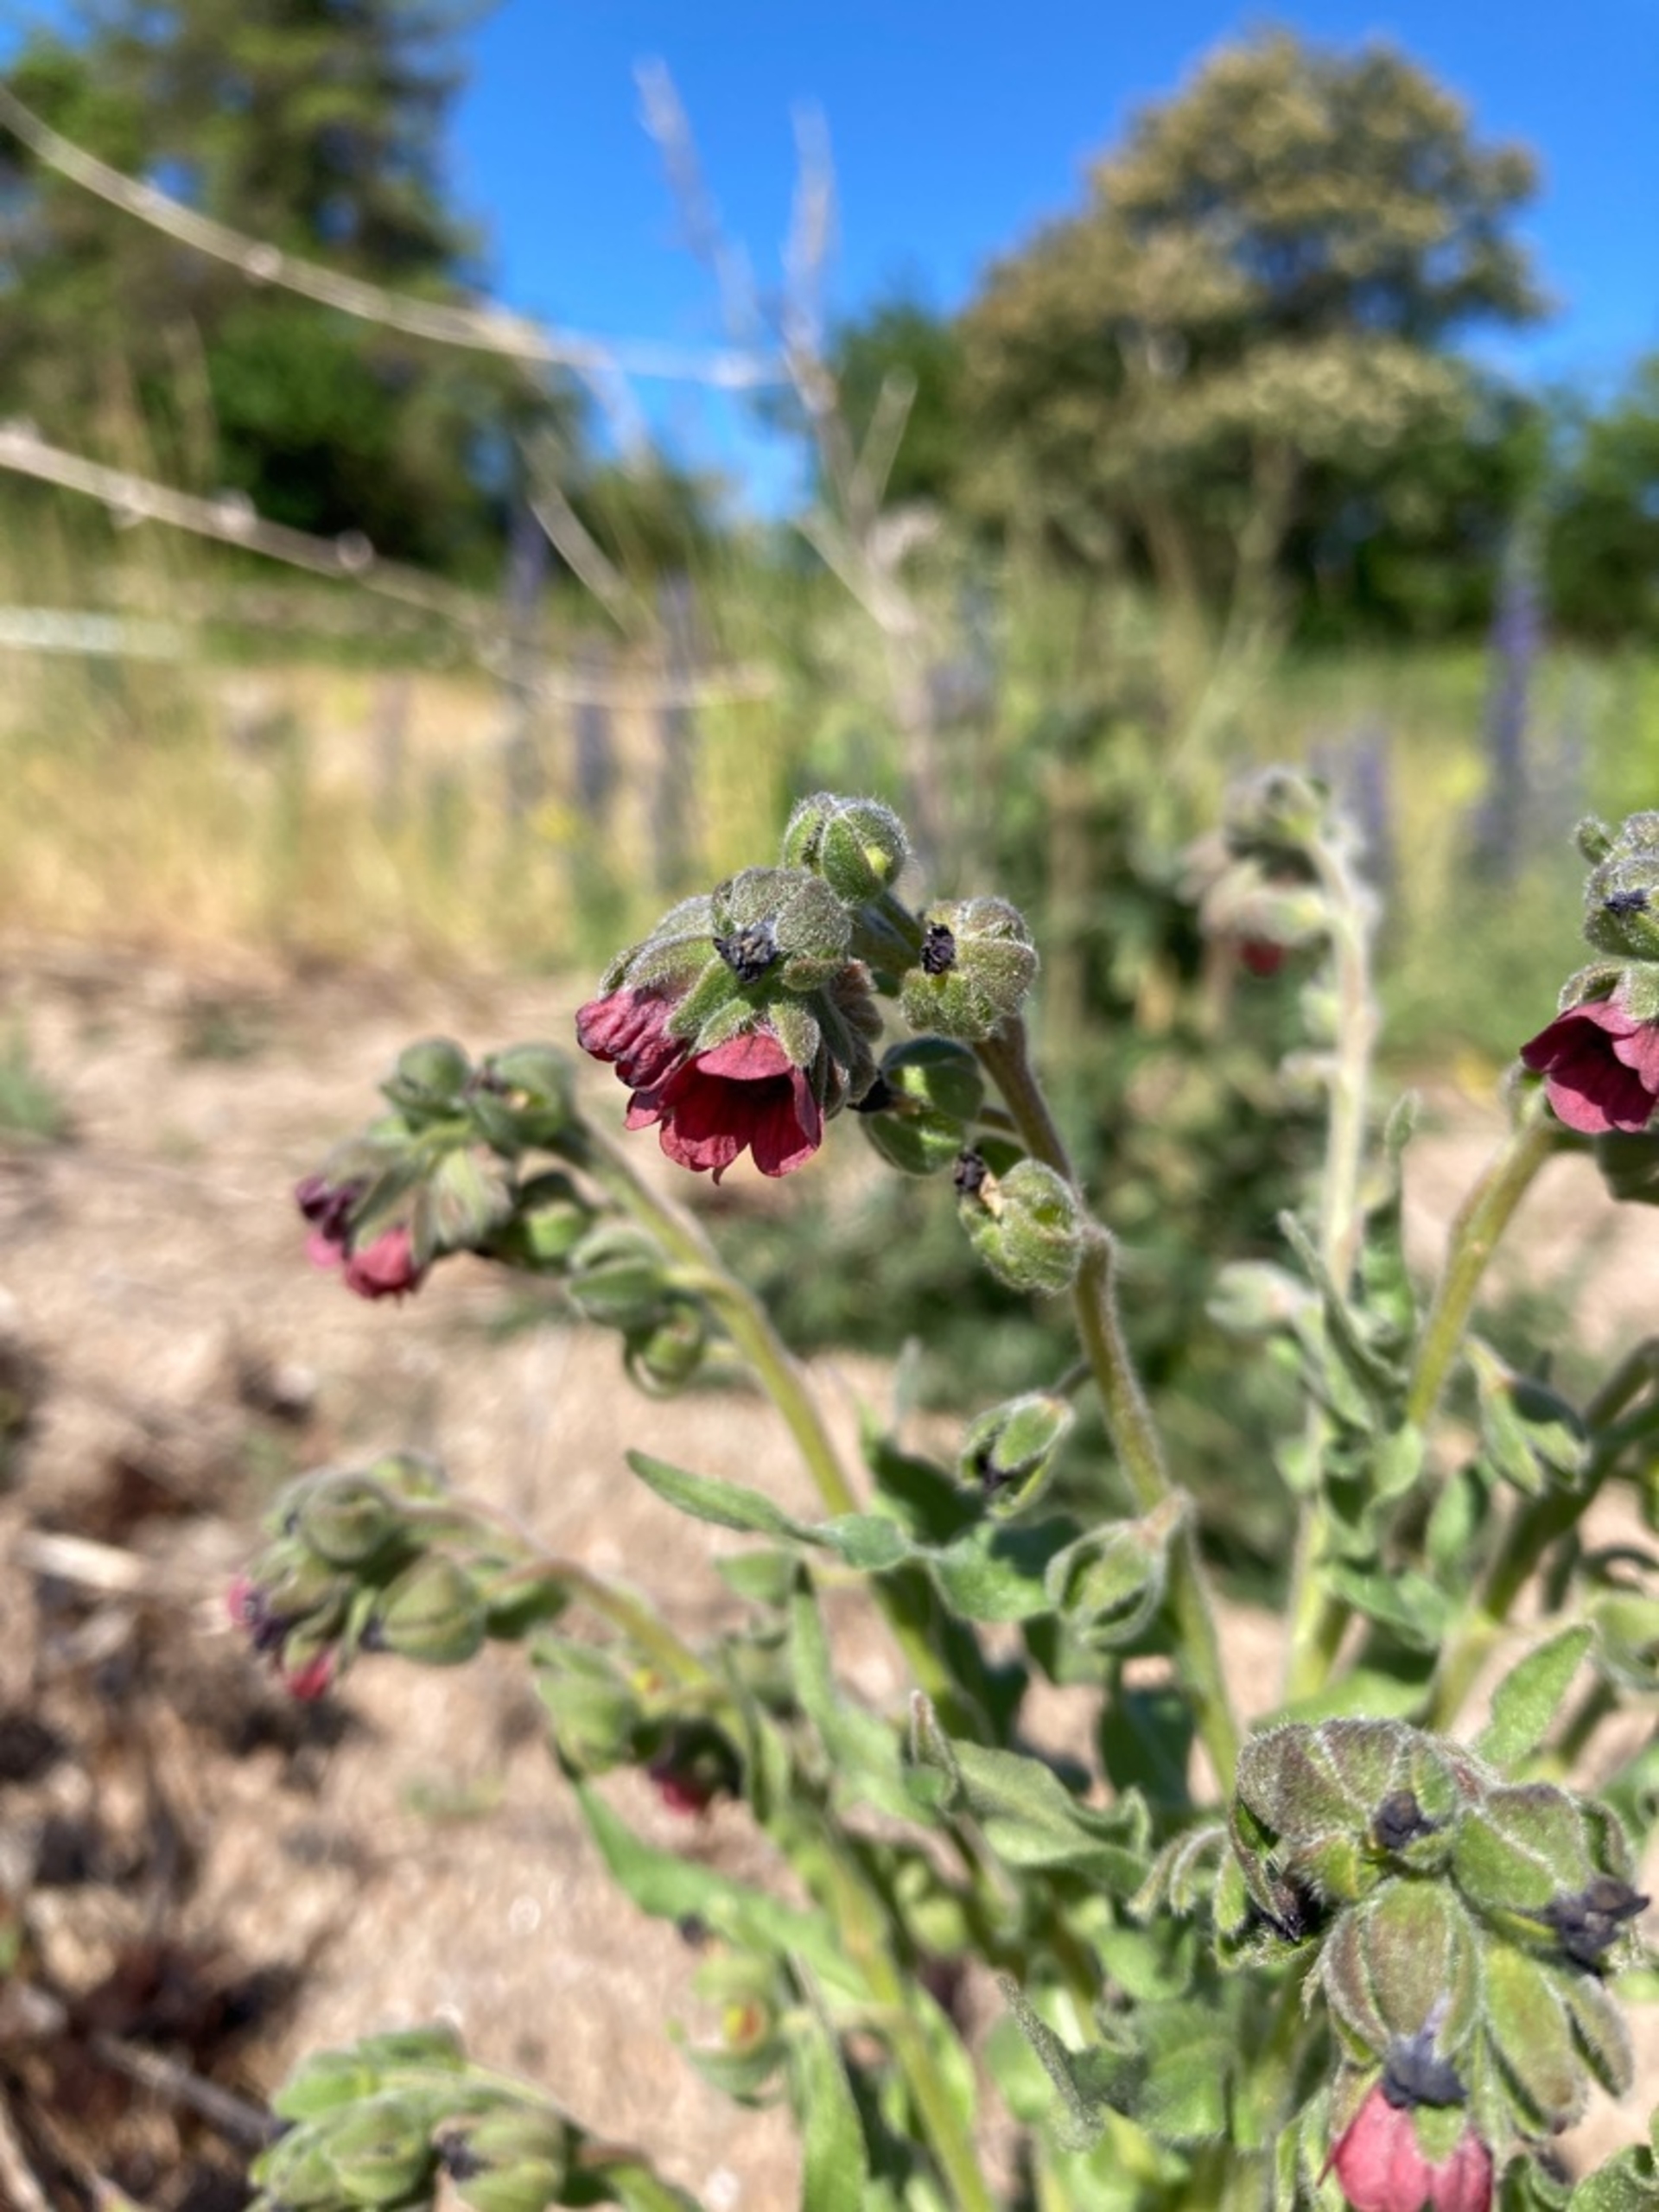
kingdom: Plantae
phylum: Tracheophyta
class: Magnoliopsida
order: Boraginales
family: Boraginaceae
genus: Cynoglossum
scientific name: Cynoglossum officinale
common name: Hundetunge
